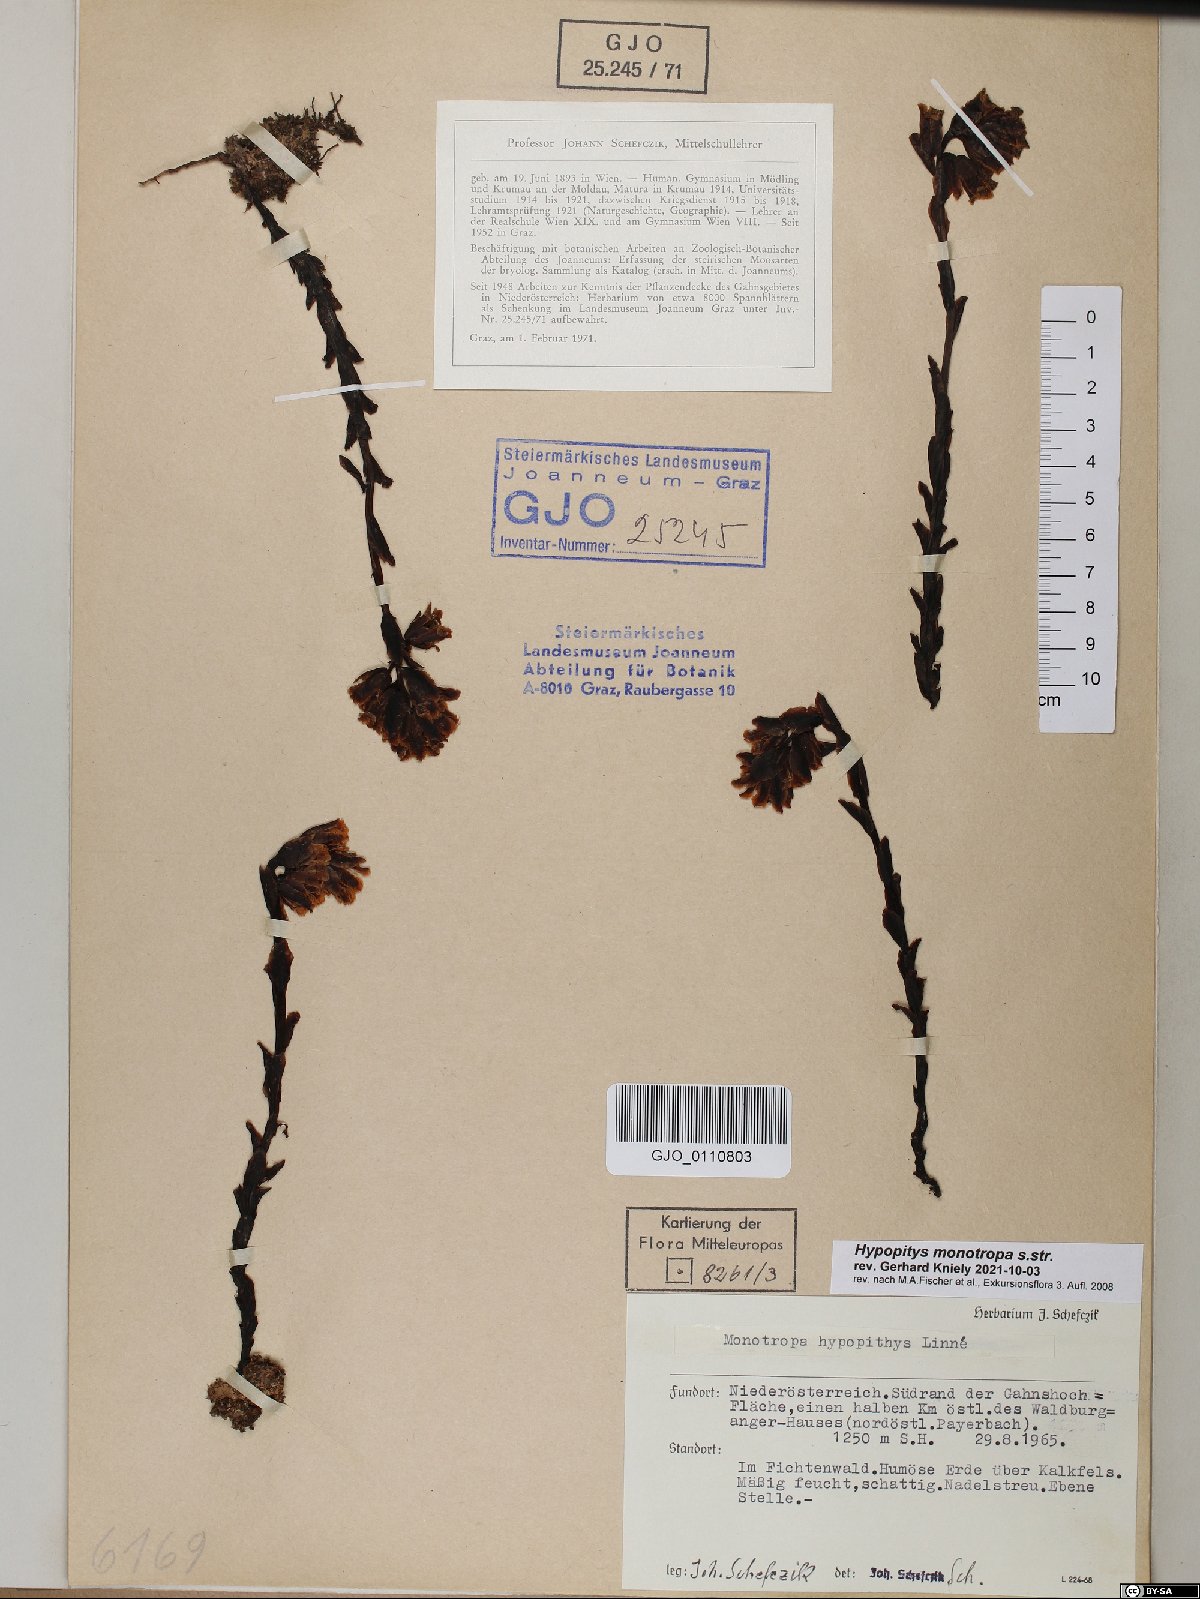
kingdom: Plantae
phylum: Tracheophyta
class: Magnoliopsida
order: Ericales
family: Ericaceae
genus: Hypopitys
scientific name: Hypopitys monotropa
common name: Yellow bird's-nest
